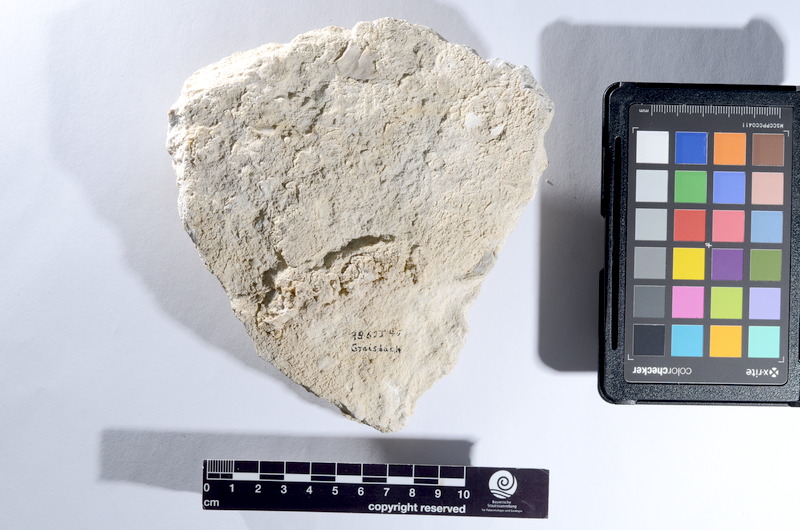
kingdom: Animalia
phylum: Chordata
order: Lepisosteiformes
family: Lepidotidae
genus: Lepidotes
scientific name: Lepidotes
